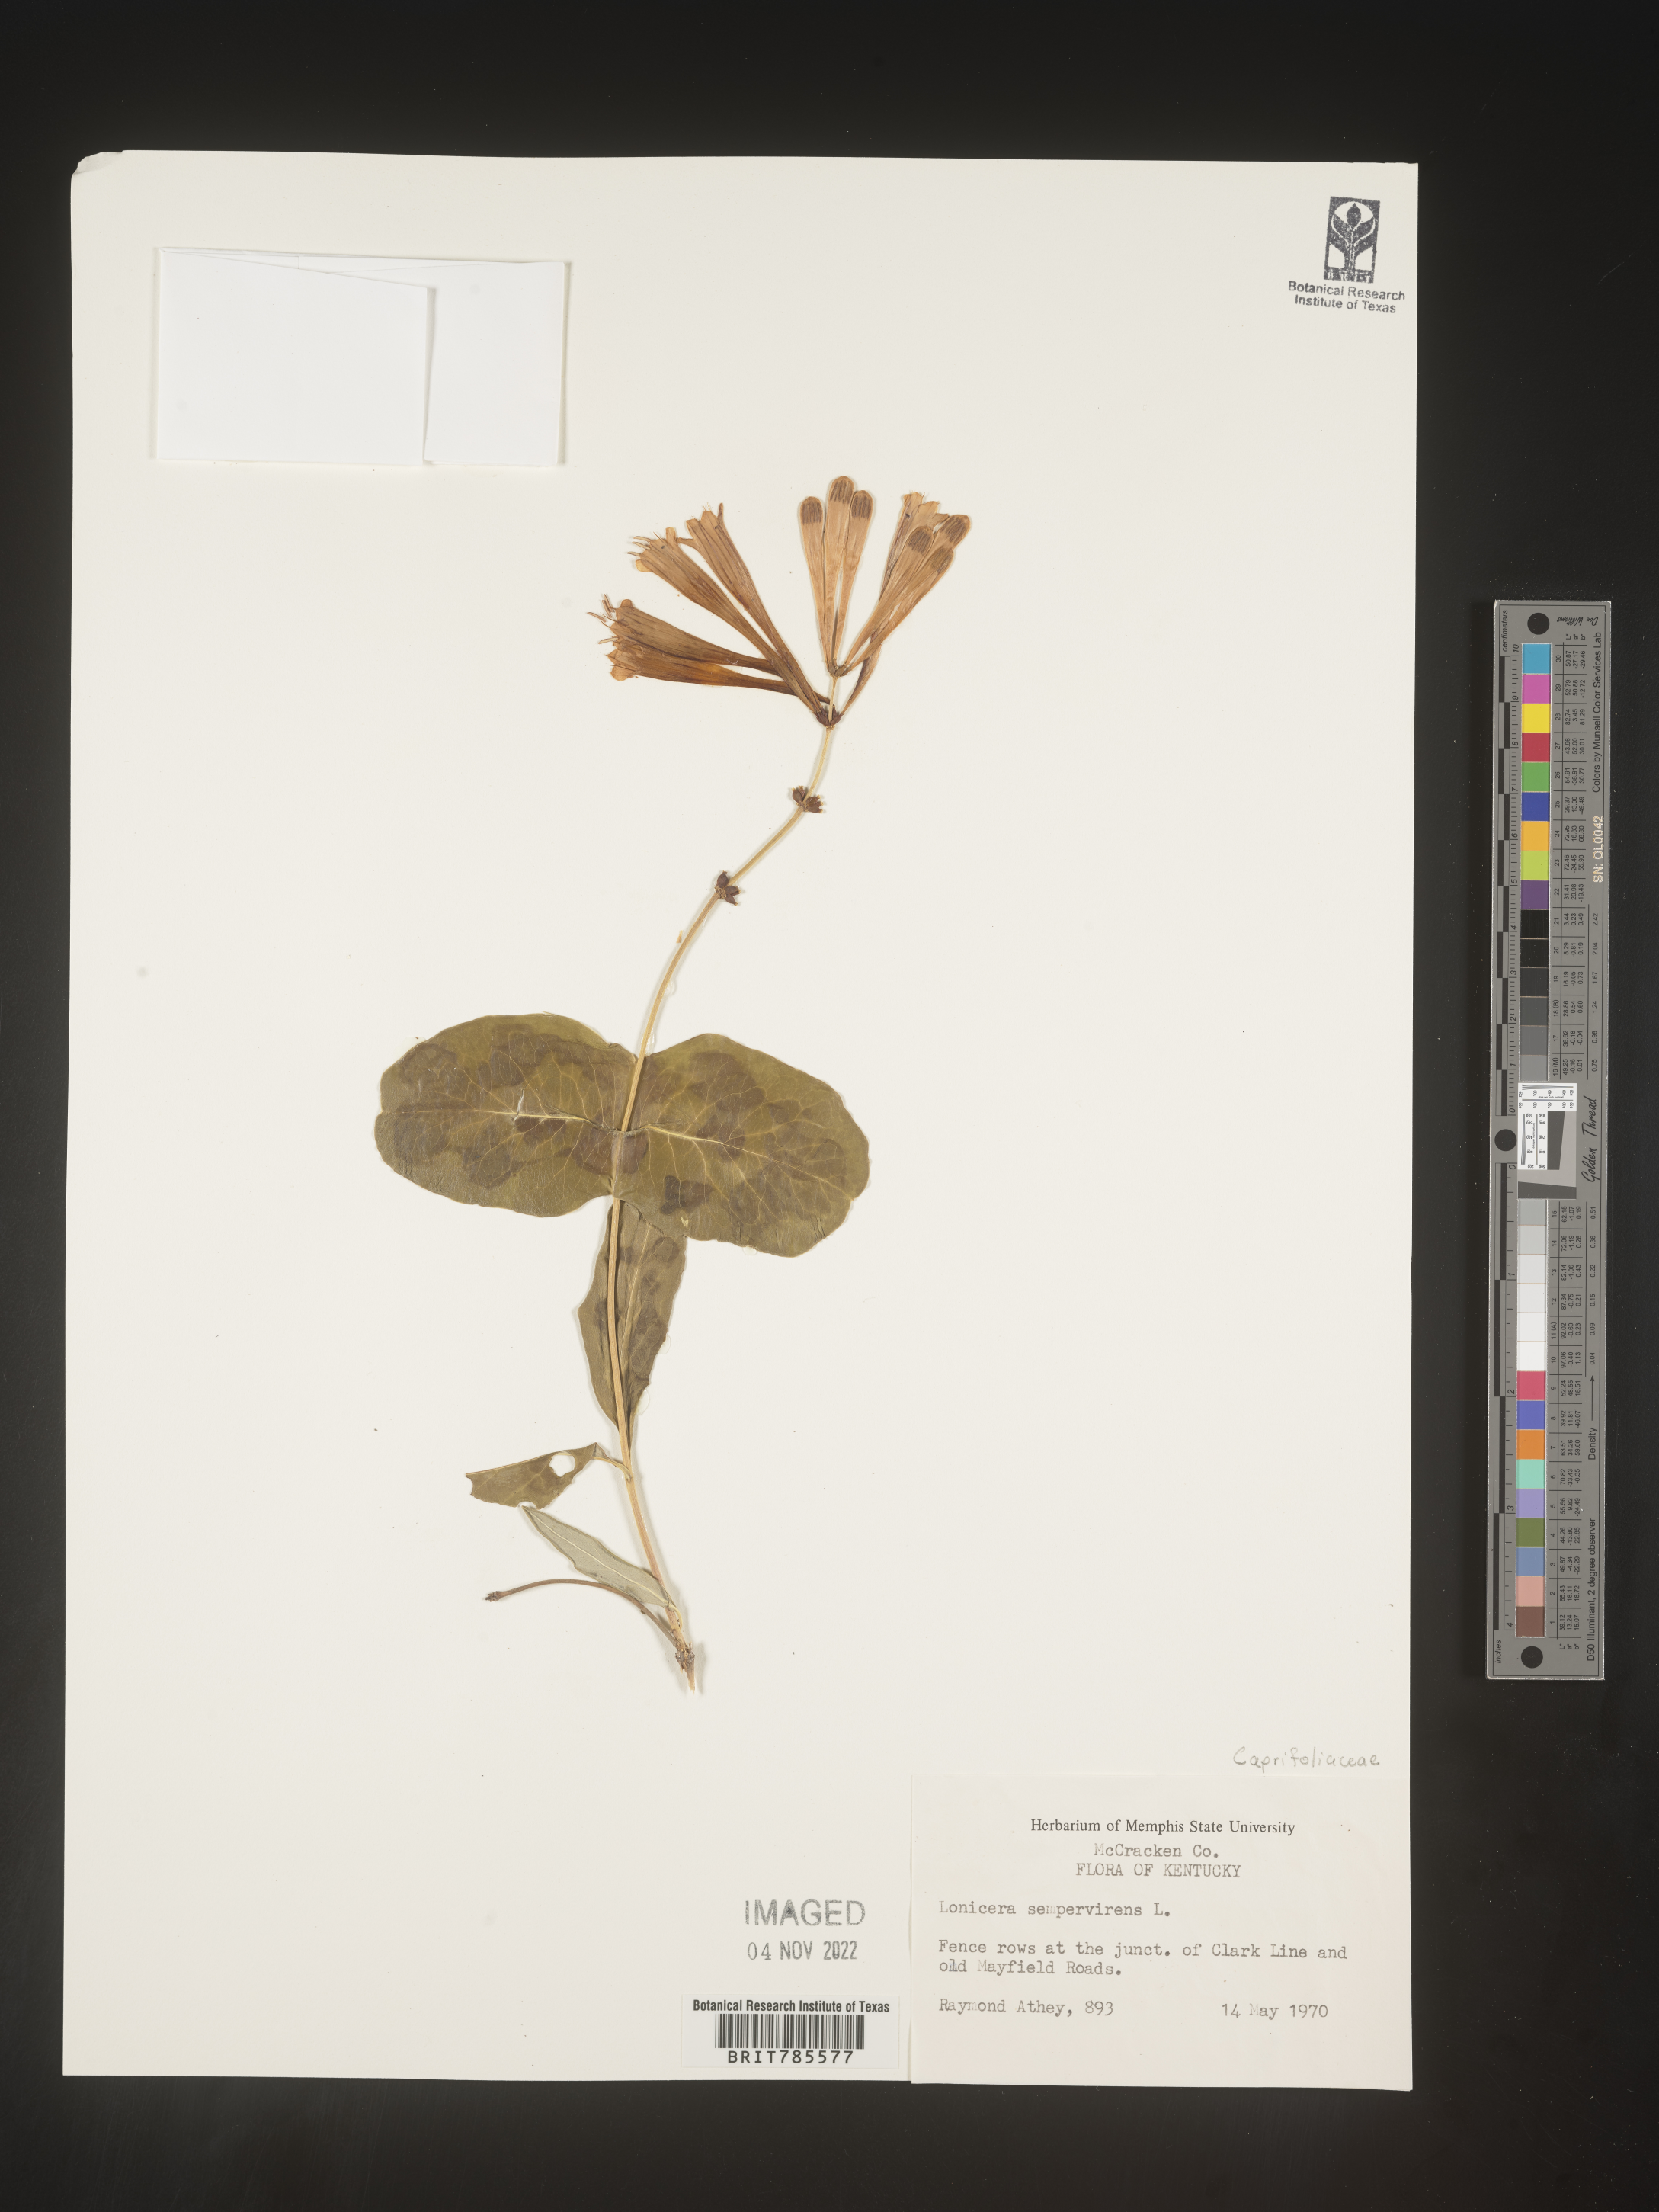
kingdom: Plantae
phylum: Tracheophyta
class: Magnoliopsida
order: Dipsacales
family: Caprifoliaceae
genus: Lonicera
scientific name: Lonicera sempervirens
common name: Coral honeysuckle
